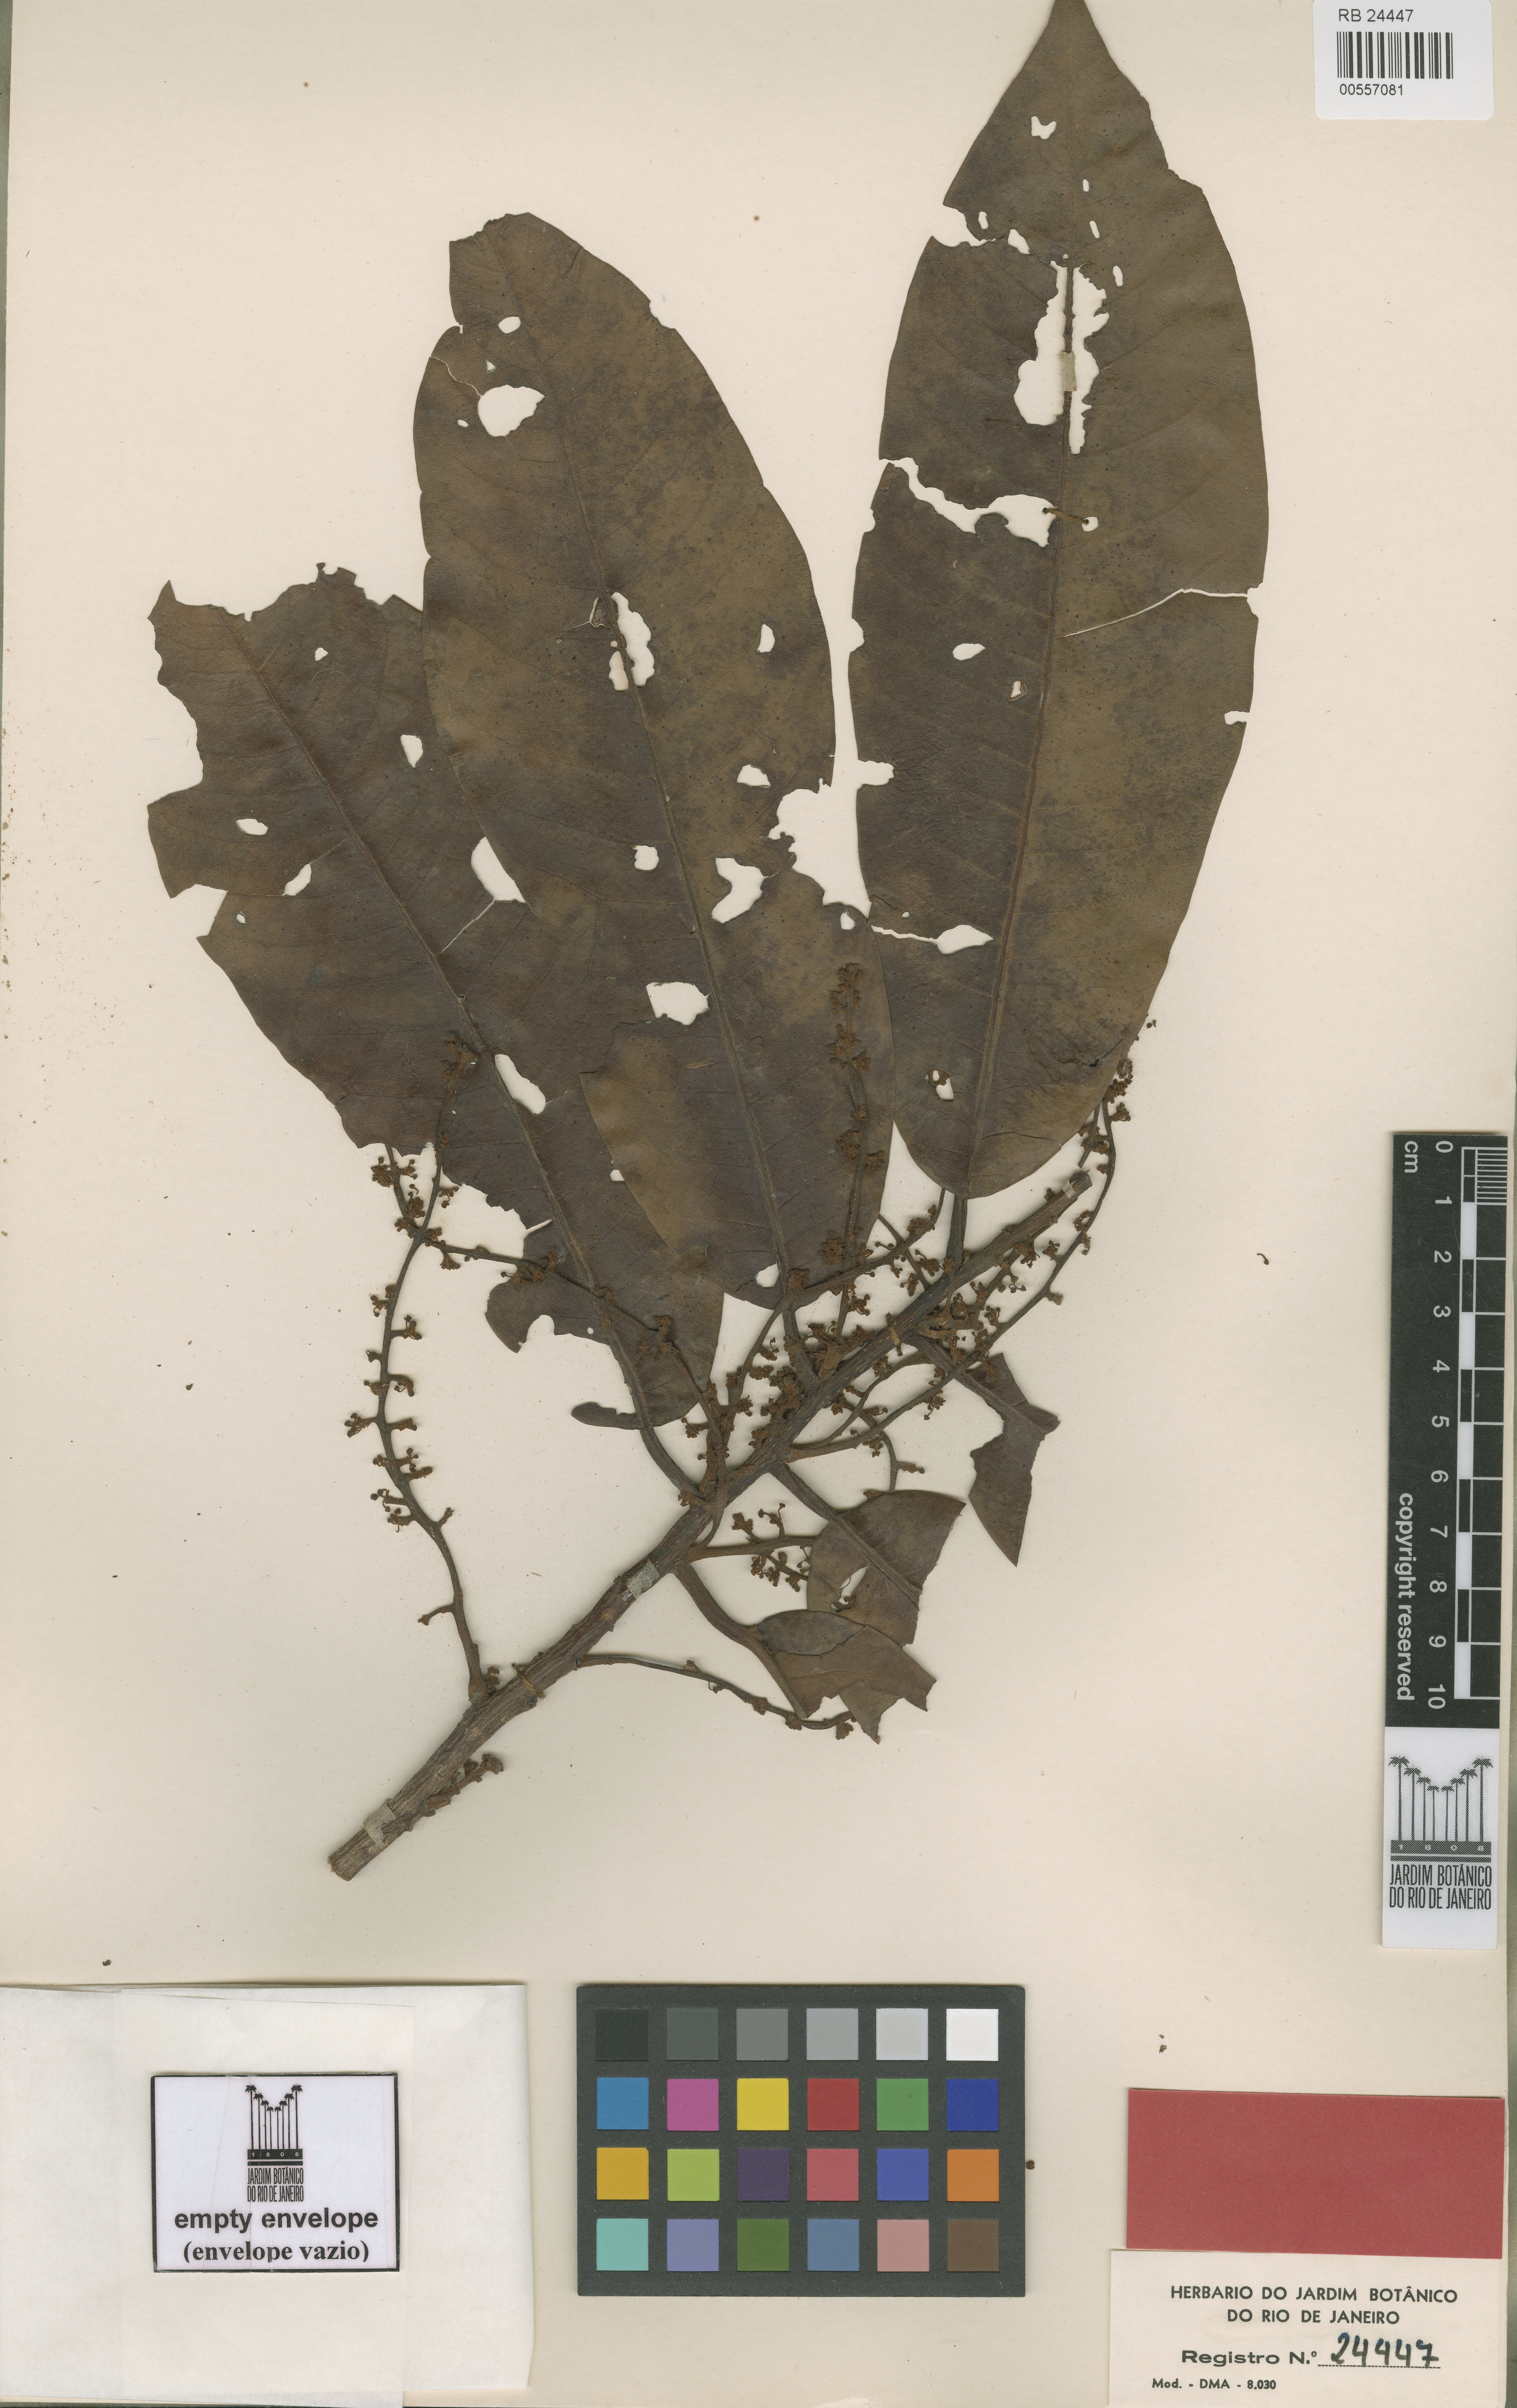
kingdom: Plantae
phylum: Tracheophyta
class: Magnoliopsida
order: Magnoliales
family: Myristicaceae
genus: Iryanthera
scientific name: Iryanthera grandis
